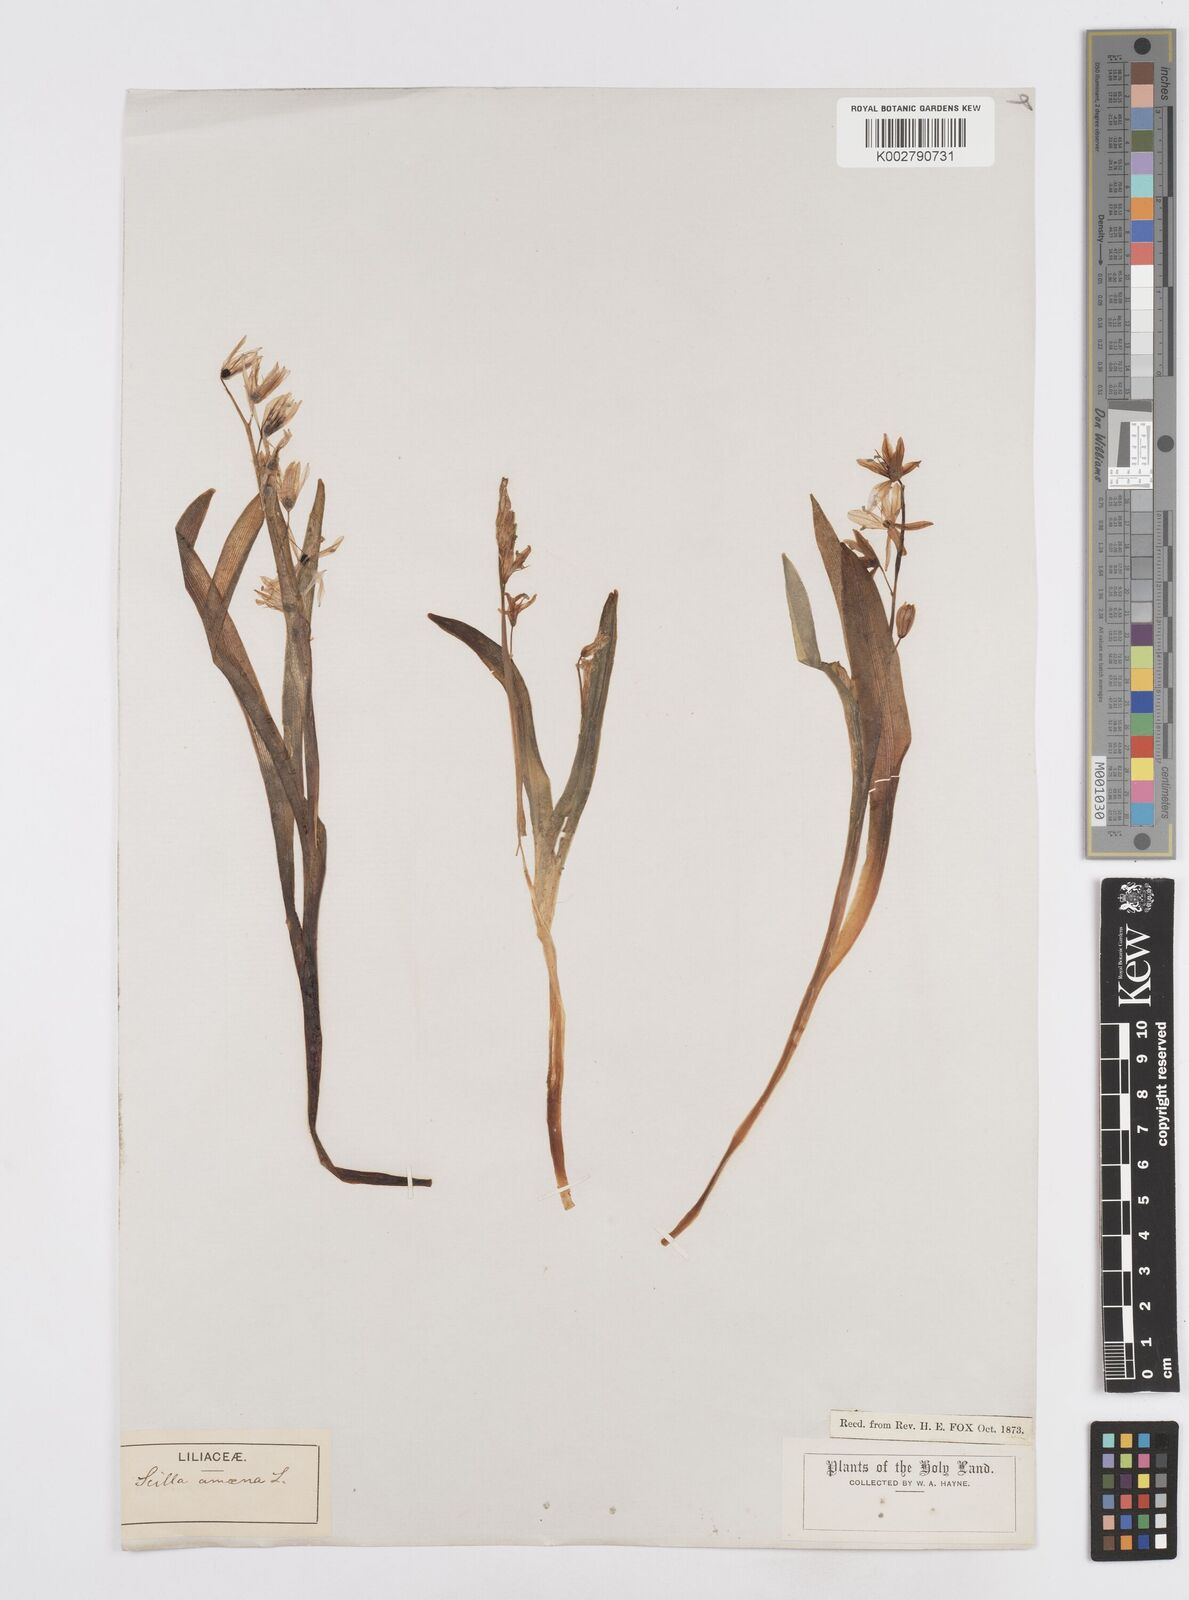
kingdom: Plantae
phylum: Tracheophyta
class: Liliopsida
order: Asparagales
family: Asparagaceae
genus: Scilla
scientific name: Scilla siberica
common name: Siberian squill
